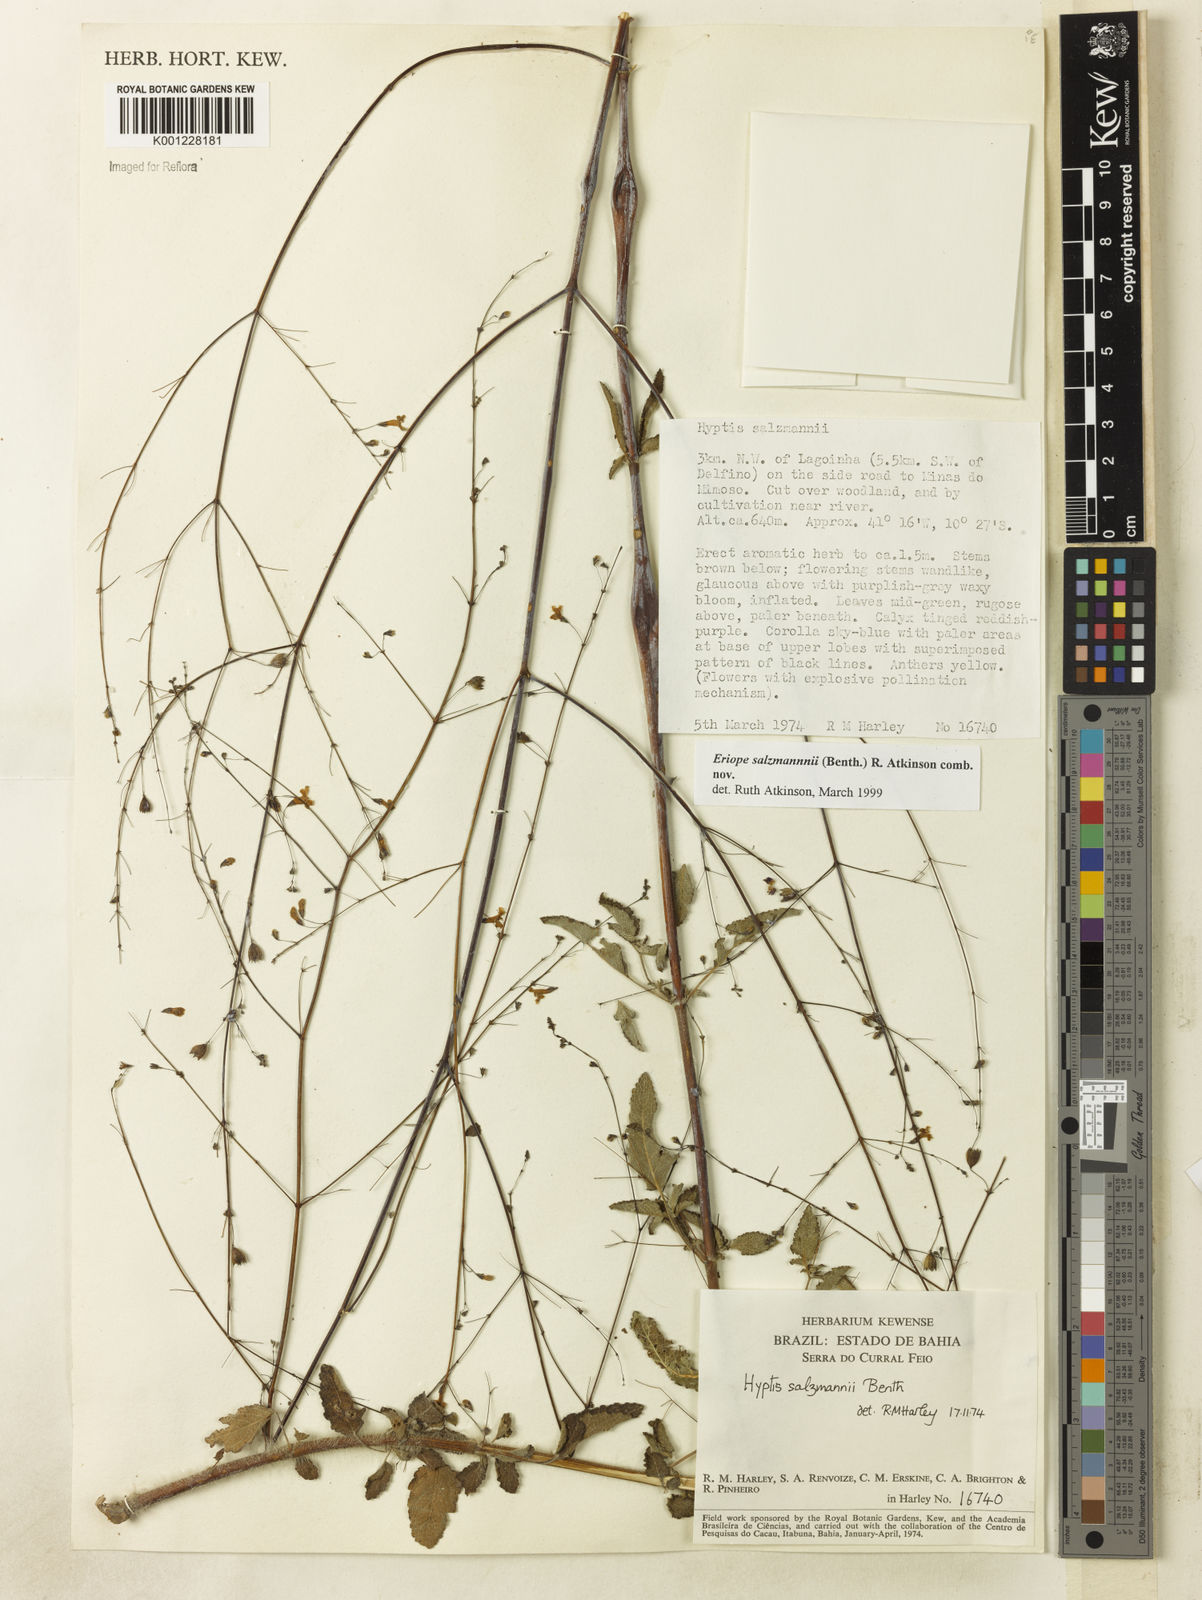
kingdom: Plantae
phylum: Tracheophyta
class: Magnoliopsida
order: Lamiales
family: Lamiaceae
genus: Hypenia
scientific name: Hypenia salzmannii
